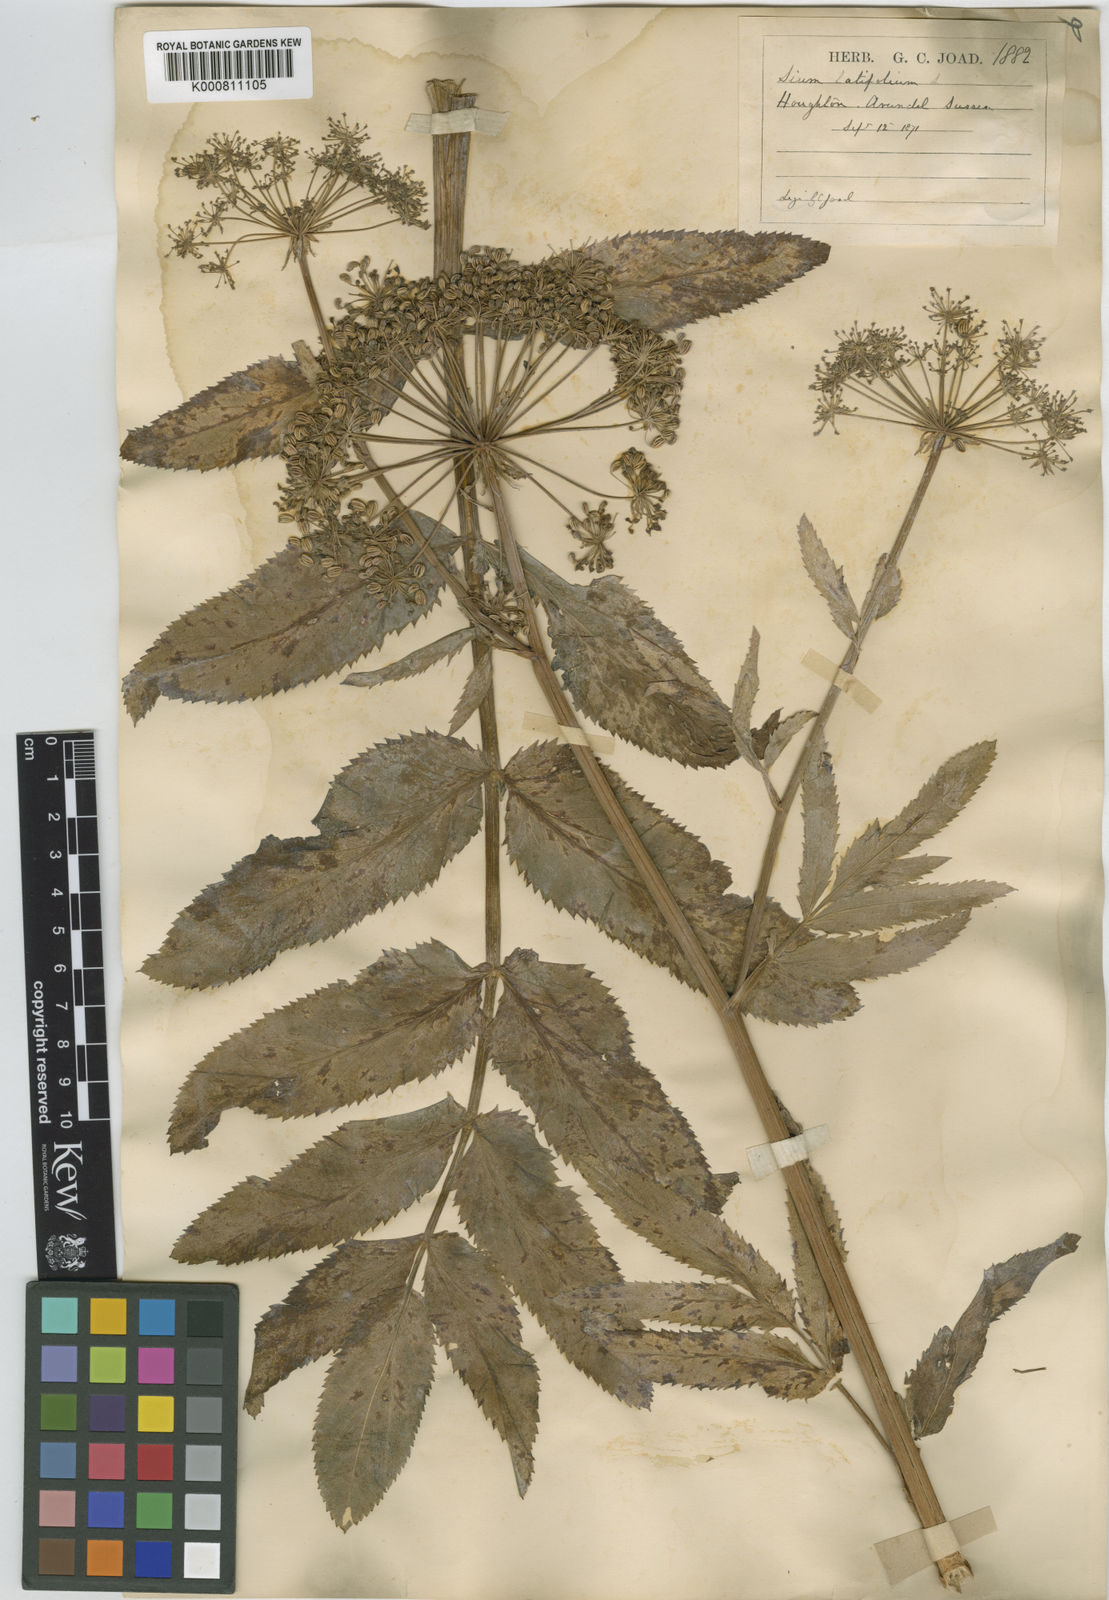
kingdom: Plantae
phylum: Tracheophyta
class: Magnoliopsida
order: Apiales
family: Apiaceae
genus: Sium
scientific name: Sium latifolium
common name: Greater water-parsnip
